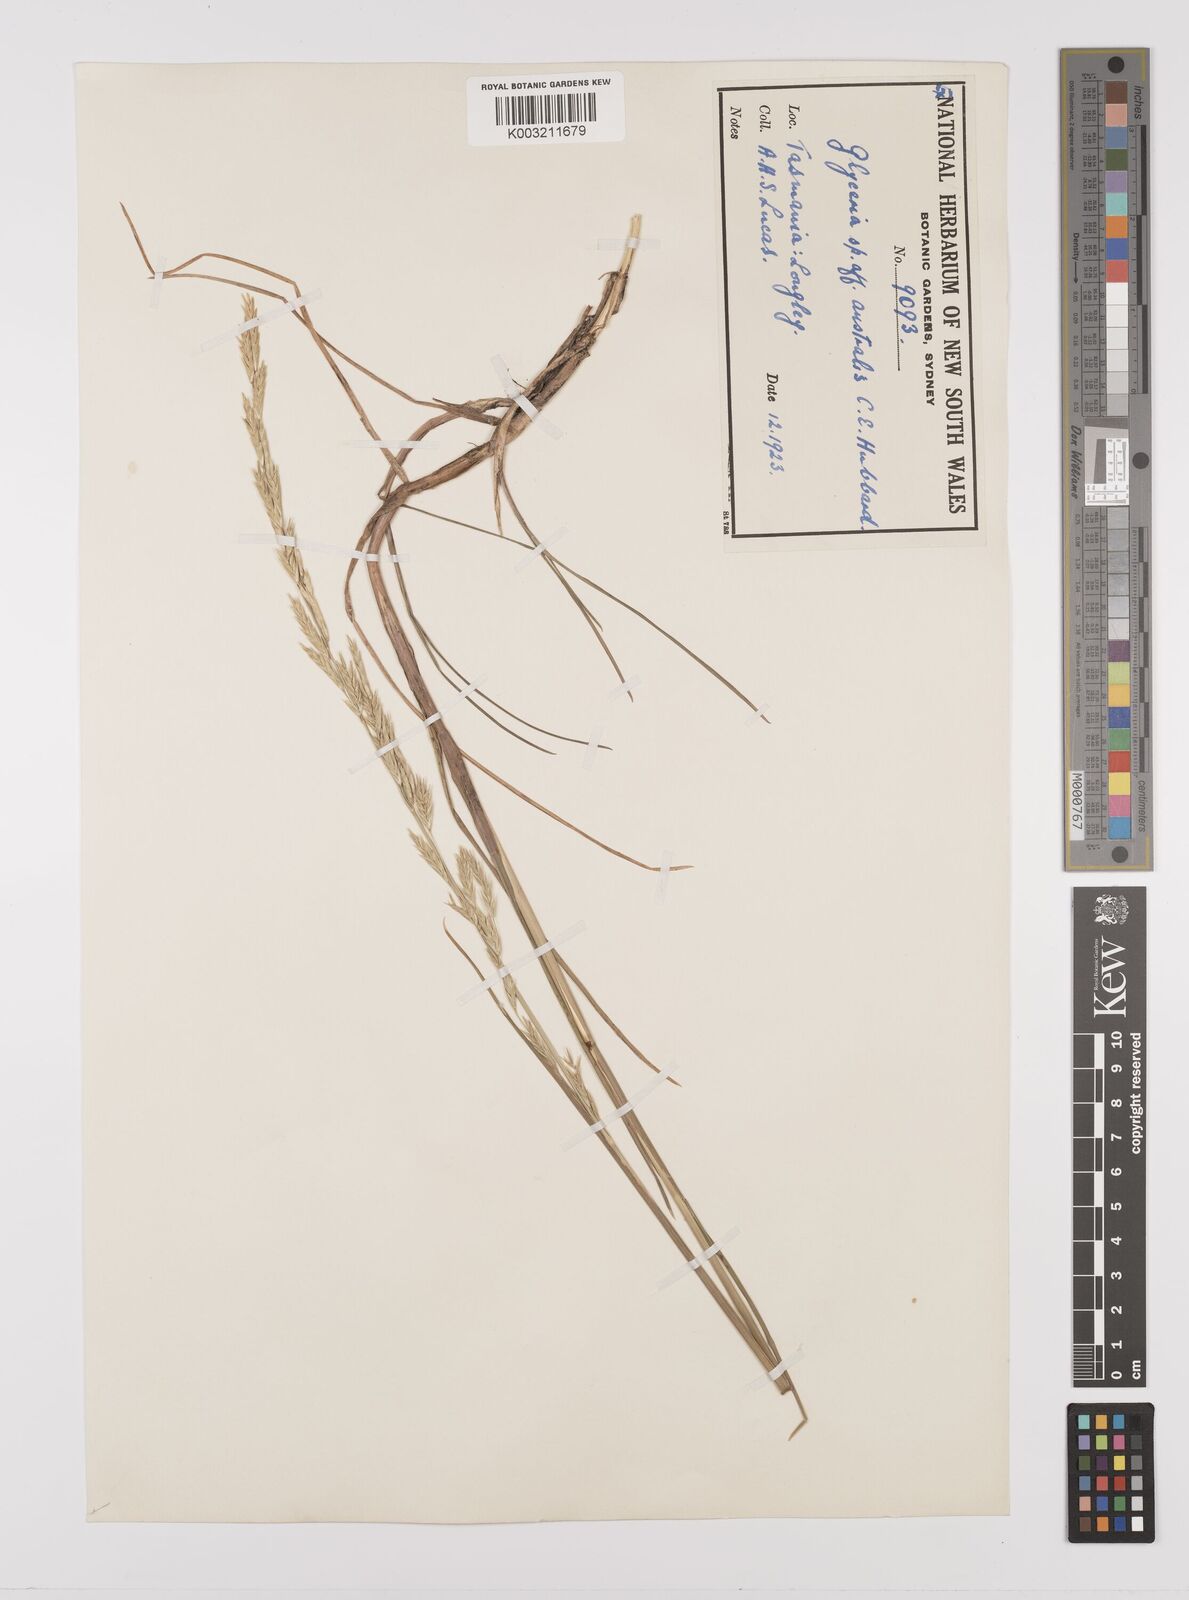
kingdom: Plantae
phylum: Tracheophyta
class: Liliopsida
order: Poales
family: Poaceae
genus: Glyceria
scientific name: Glyceria australis
